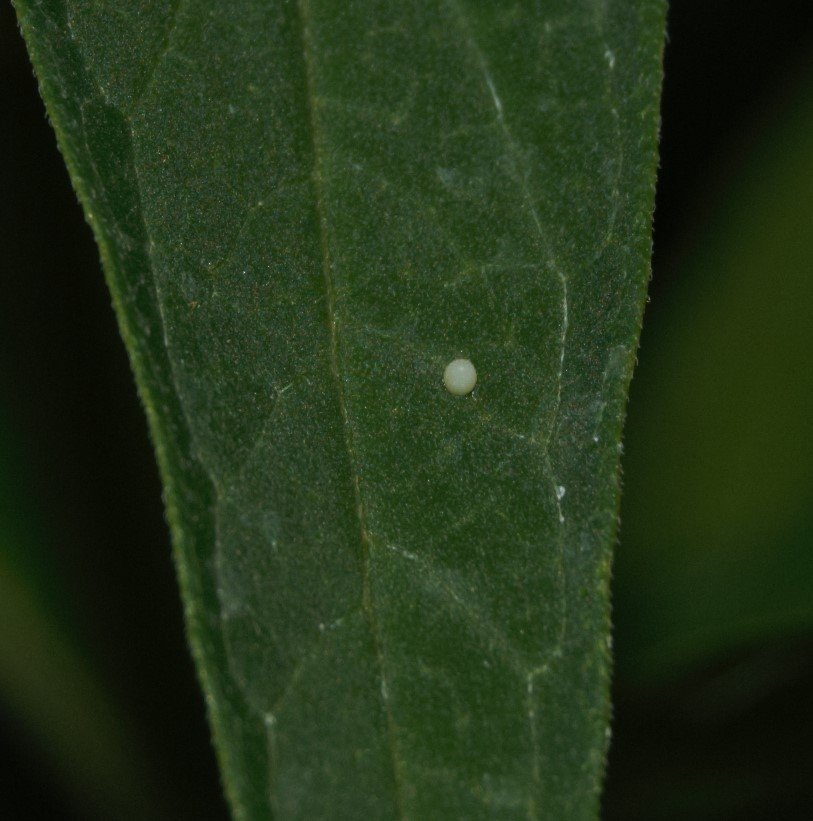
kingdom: Animalia
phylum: Arthropoda
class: Insecta
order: Lepidoptera
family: Nymphalidae
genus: Danaus
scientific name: Danaus plexippus
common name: Monarch
